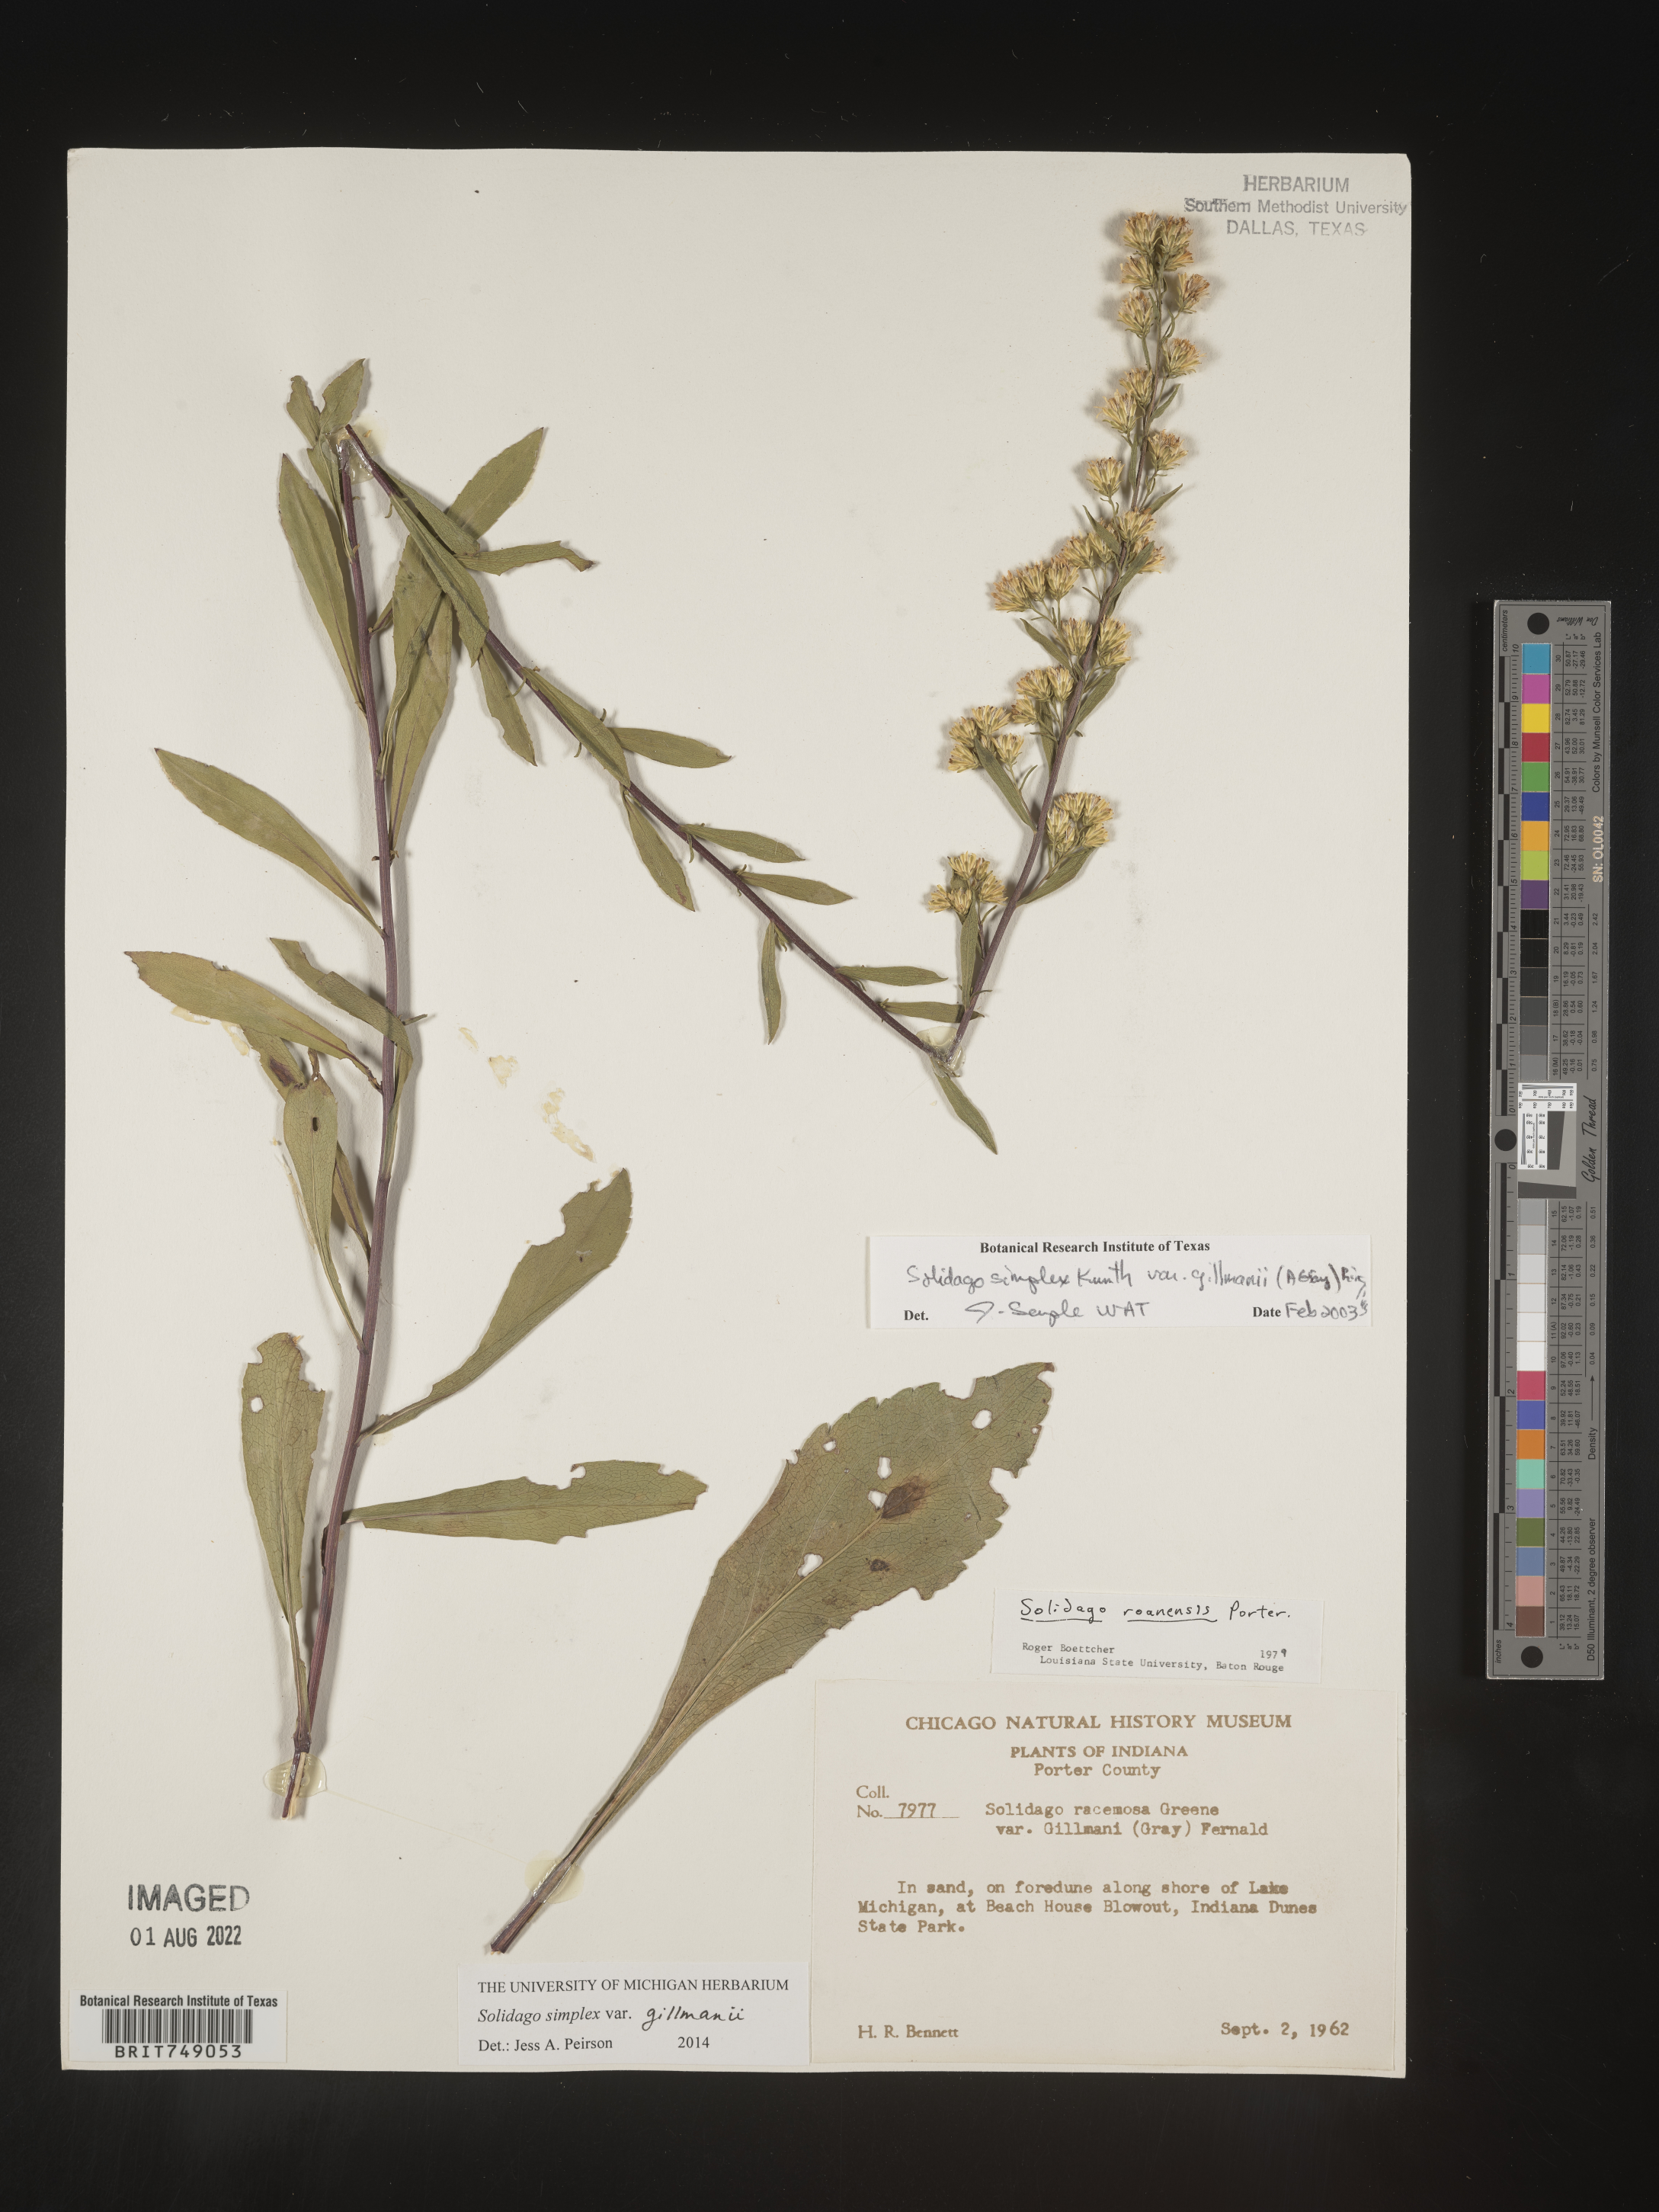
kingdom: Plantae
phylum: Tracheophyta
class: Magnoliopsida
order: Asterales
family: Asteraceae
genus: Solidago
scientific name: Solidago simplex
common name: Sticky goldenrod
